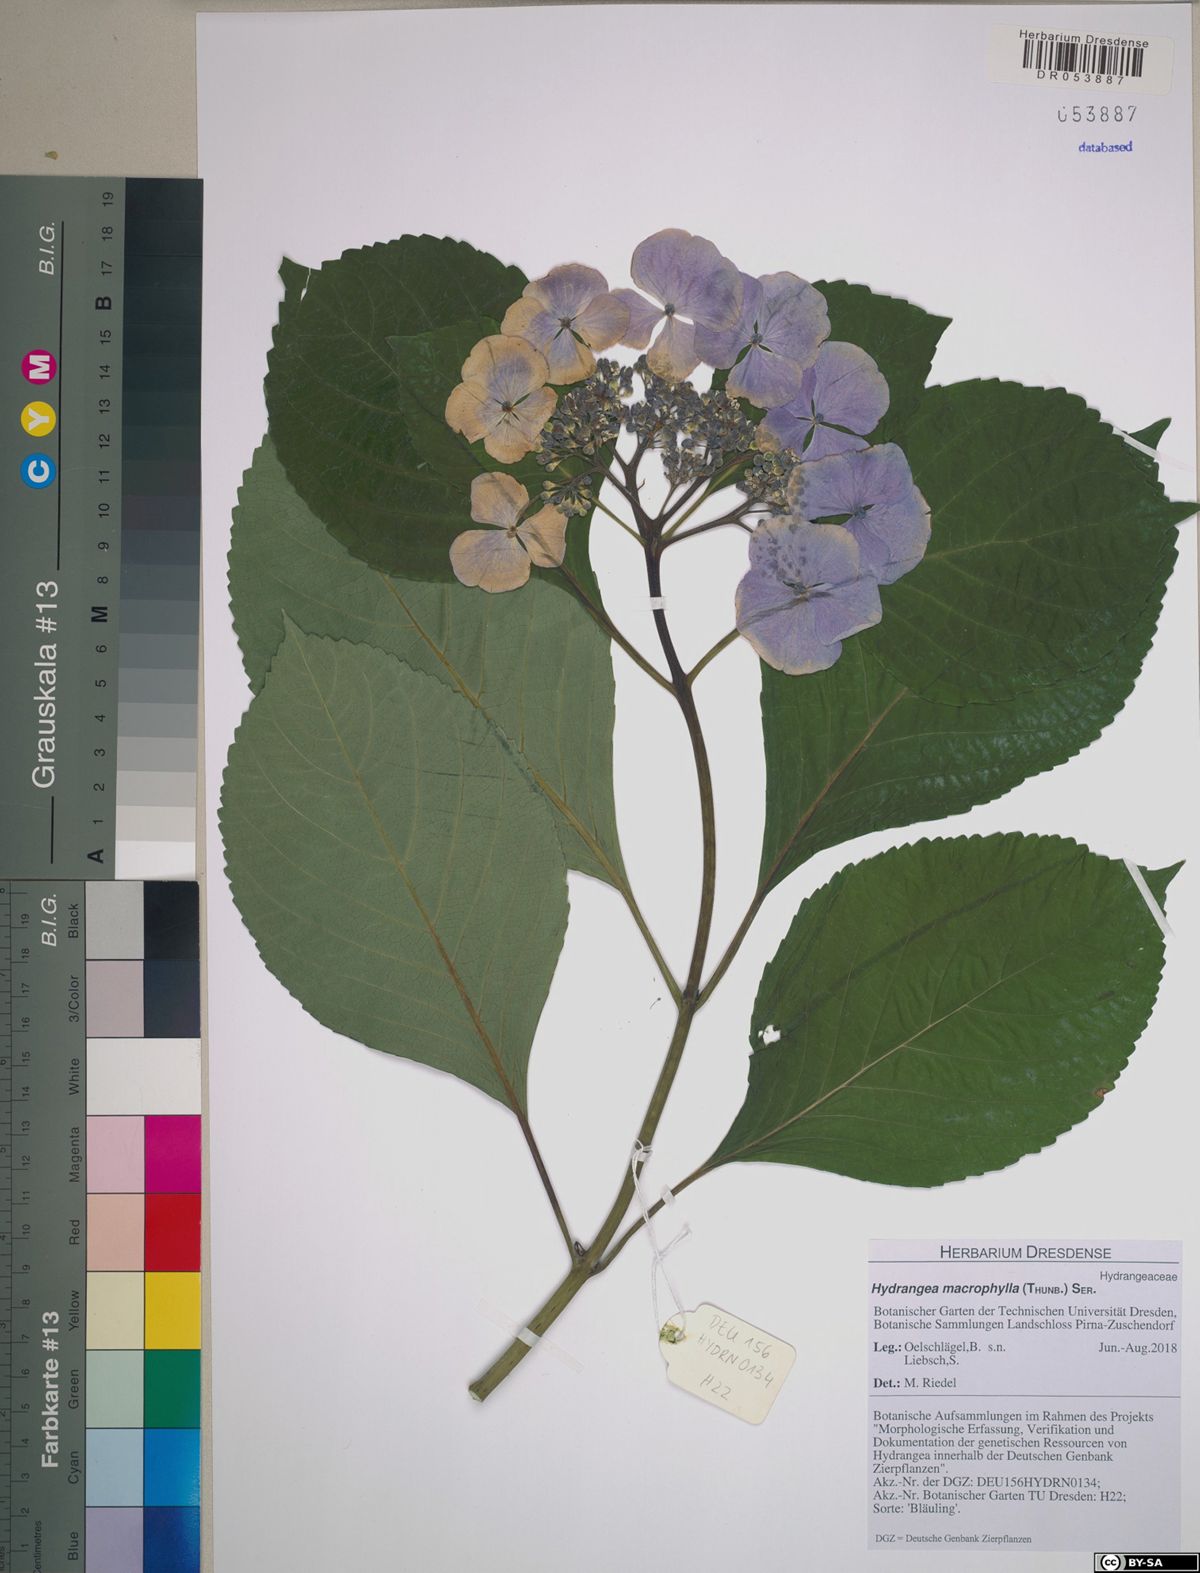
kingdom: Plantae
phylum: Tracheophyta
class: Magnoliopsida
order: Cornales
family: Hydrangeaceae
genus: Hydrangea
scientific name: Hydrangea macrophylla
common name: Hydrangea
